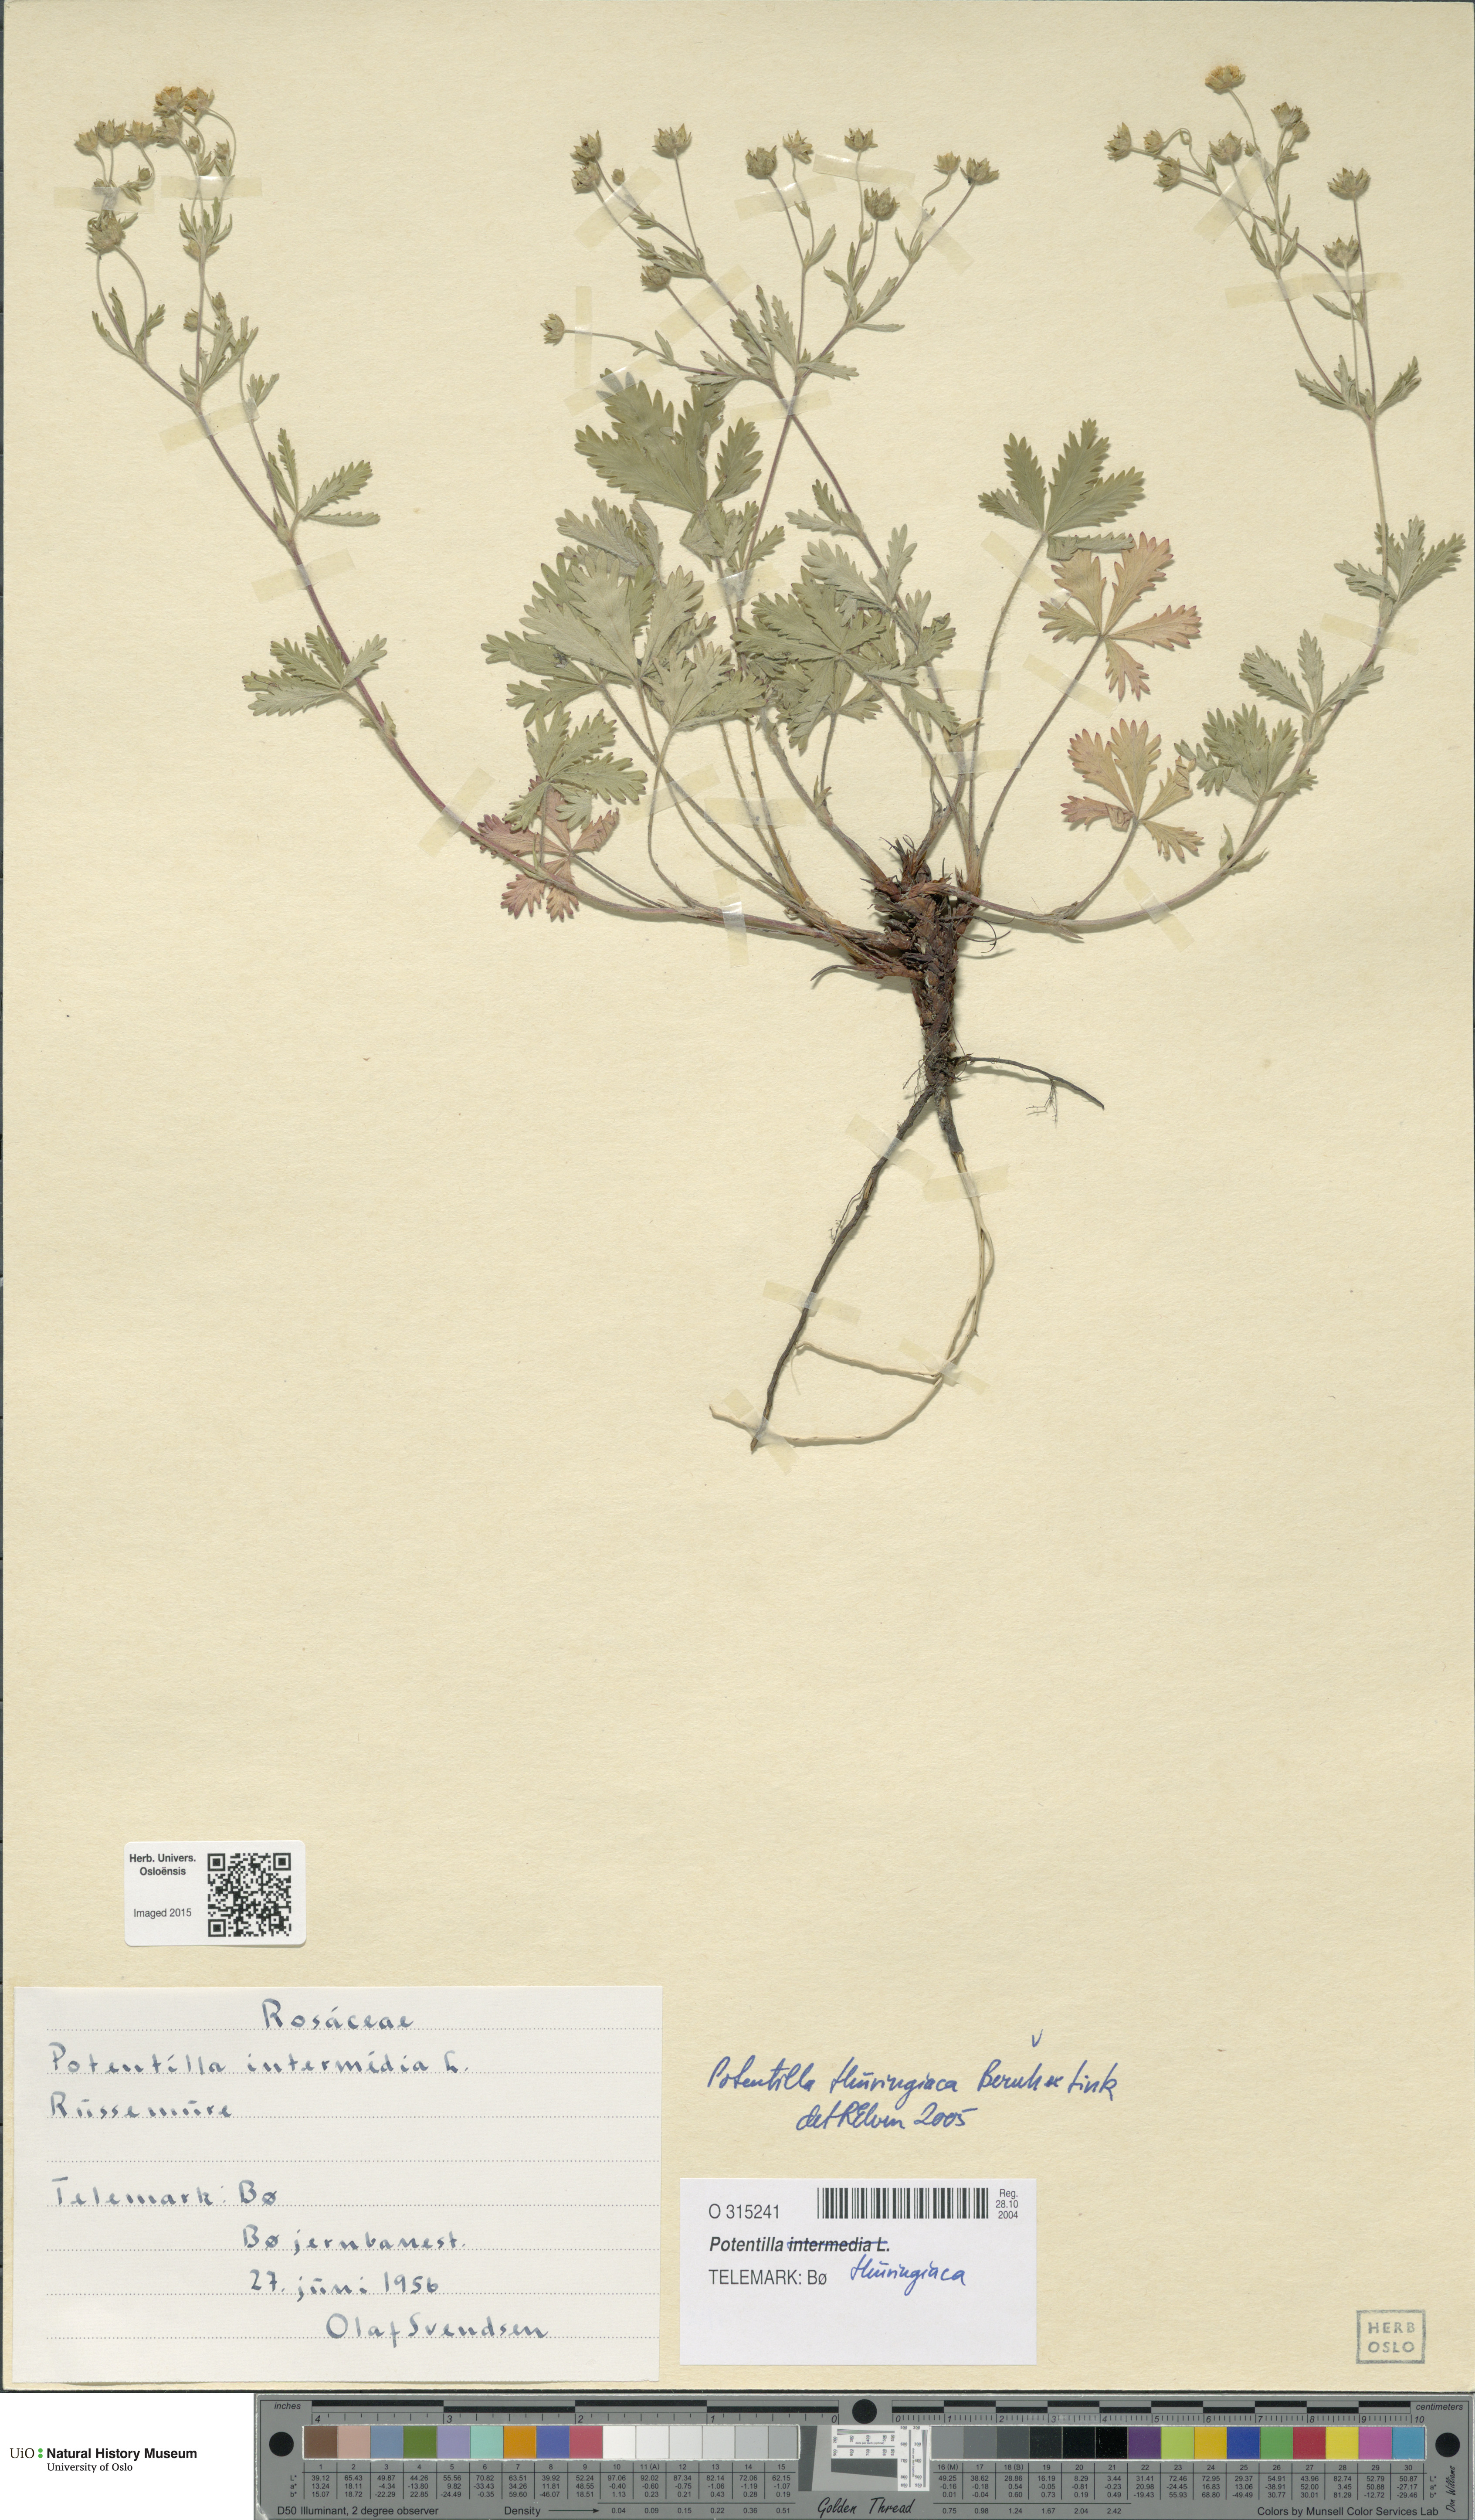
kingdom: Plantae
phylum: Tracheophyta
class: Magnoliopsida
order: Rosales
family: Rosaceae
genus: Potentilla
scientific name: Potentilla thuringiaca
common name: European cinquefoil
